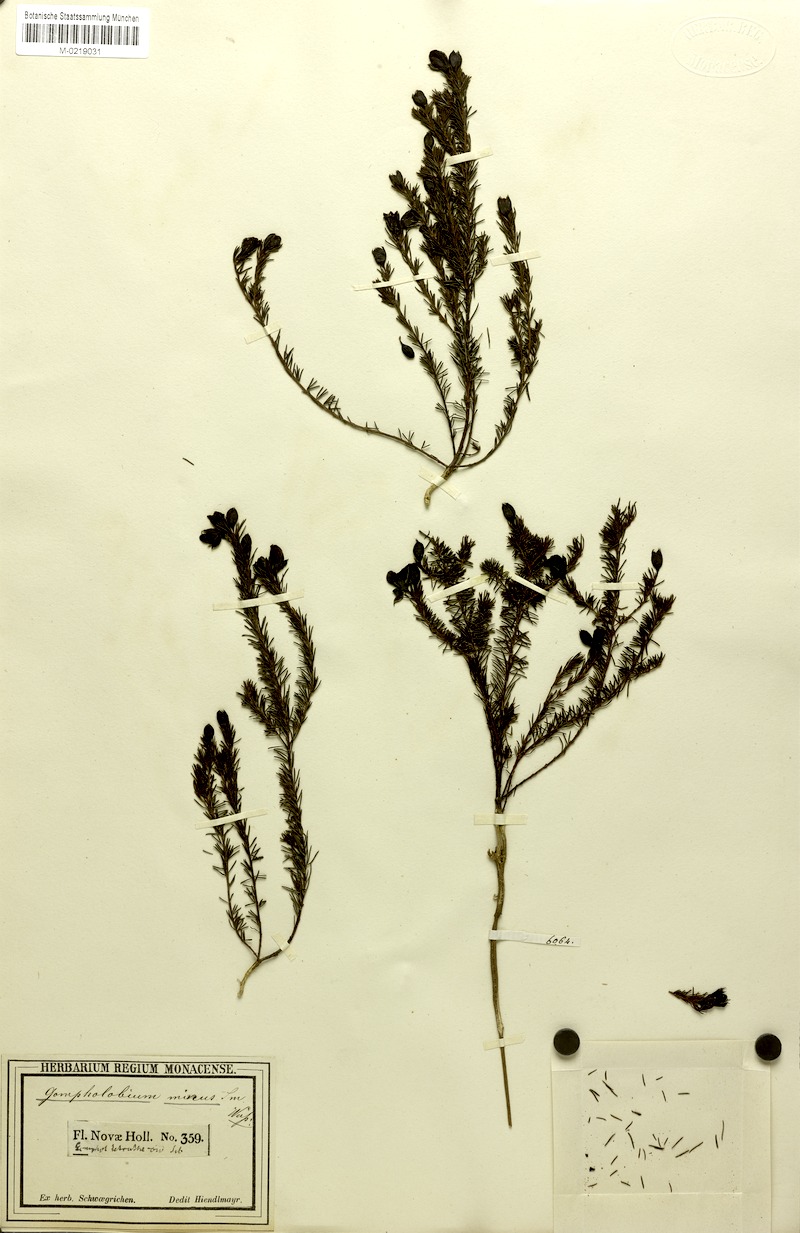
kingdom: Plantae
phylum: Tracheophyta
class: Magnoliopsida
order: Fabales
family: Fabaceae
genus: Gompholobium
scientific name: Gompholobium minus
